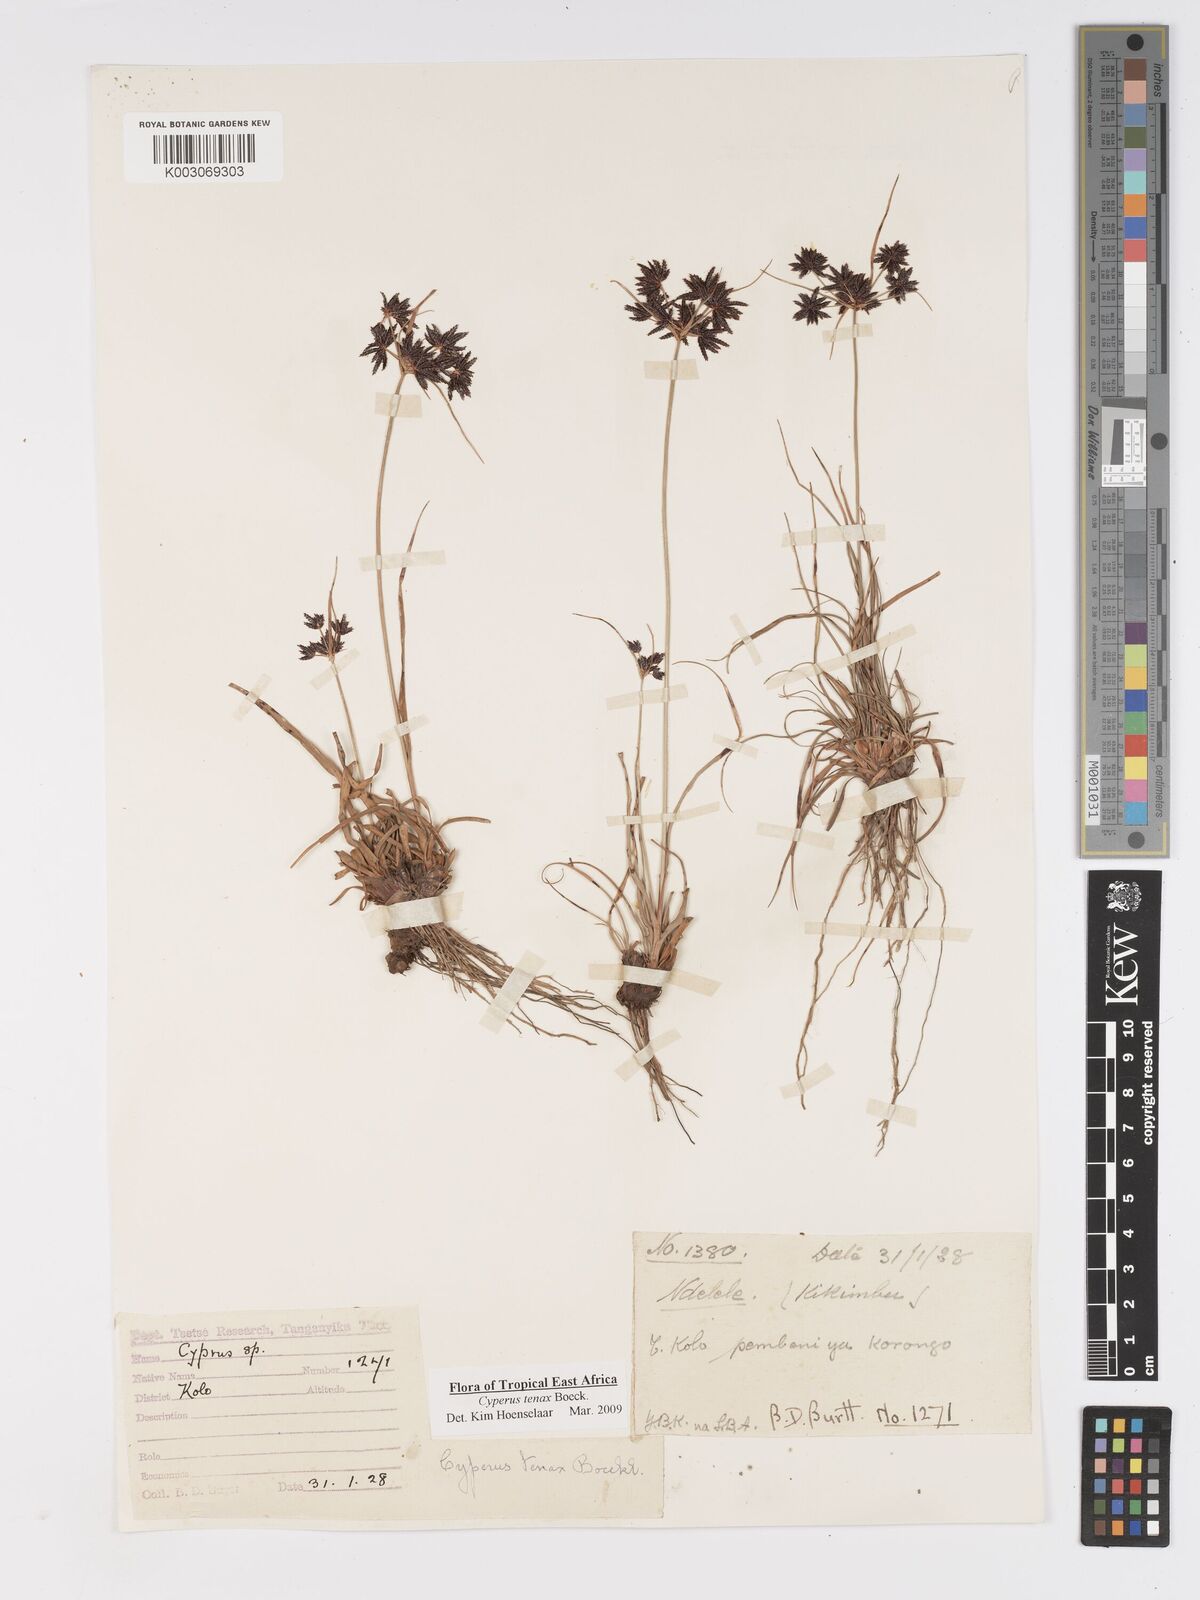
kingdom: Plantae
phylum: Tracheophyta
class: Liliopsida
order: Poales
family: Cyperaceae
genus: Cyperus
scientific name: Cyperus tenax
